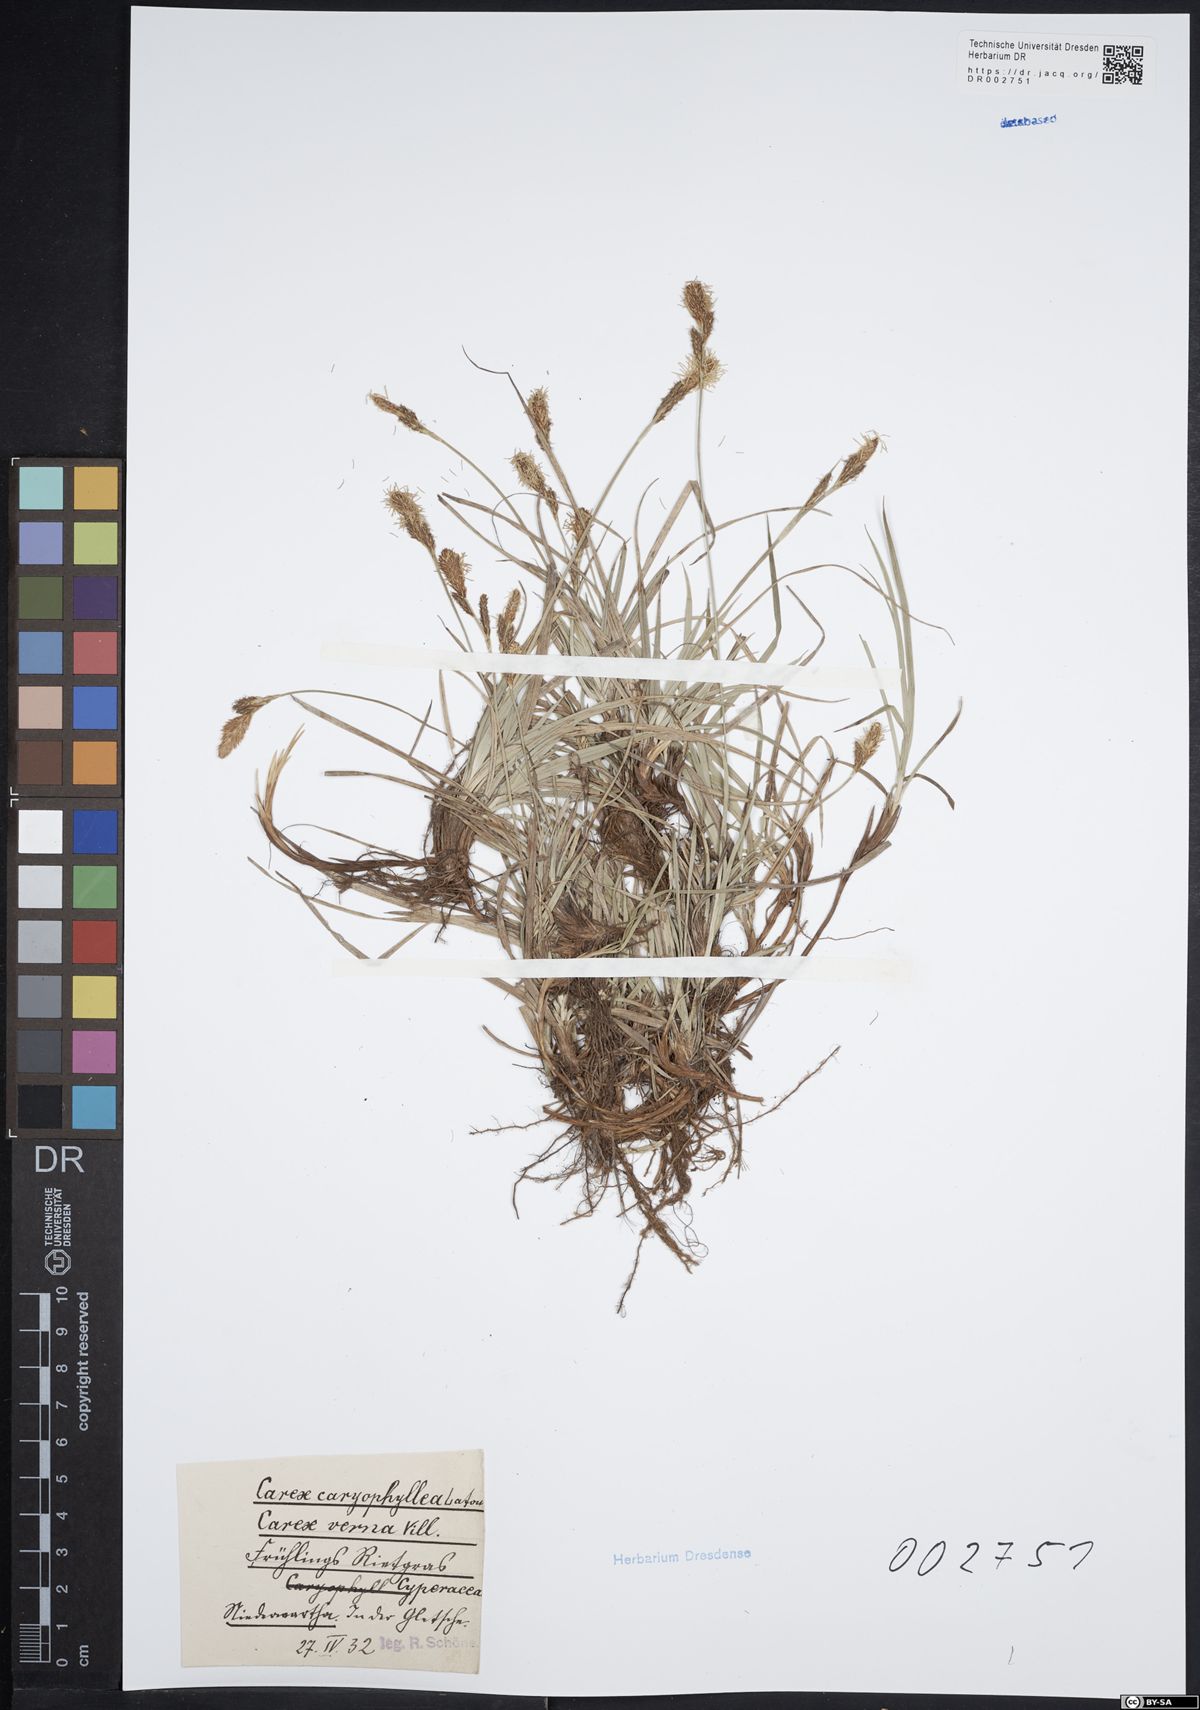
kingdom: Plantae
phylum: Tracheophyta
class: Liliopsida
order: Poales
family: Cyperaceae
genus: Carex
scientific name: Carex caryophyllea
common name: Spring sedge
